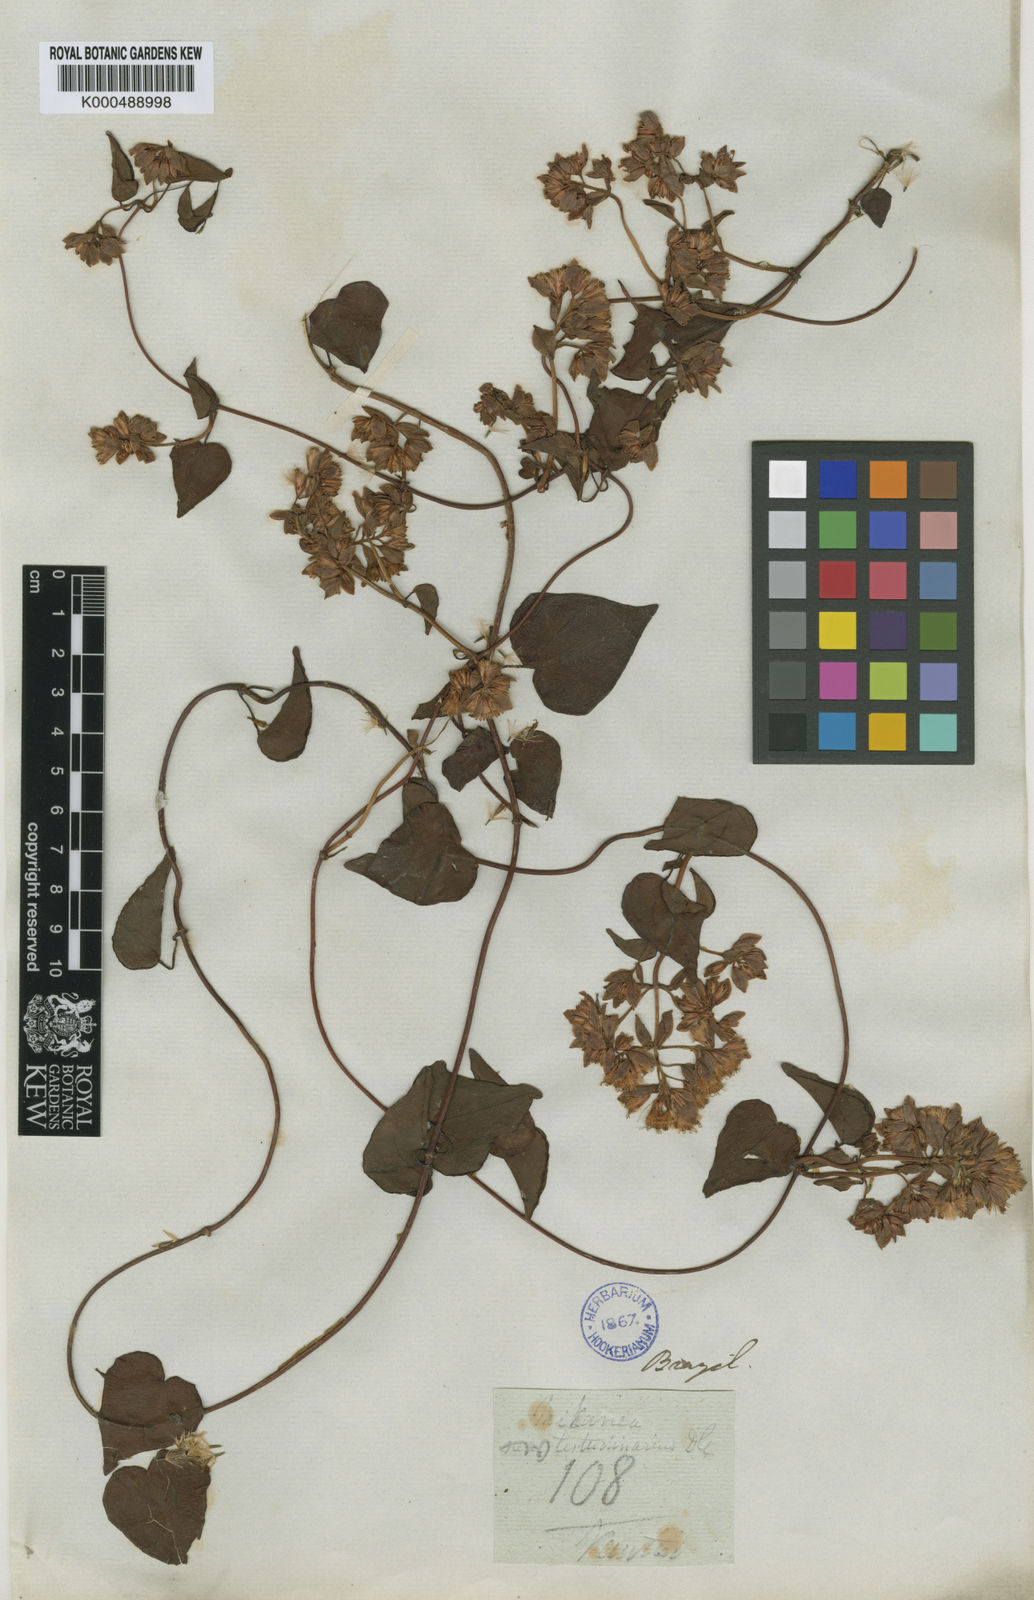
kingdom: Plantae
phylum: Tracheophyta
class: Magnoliopsida
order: Asterales
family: Asteraceae
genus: Mikania
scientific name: Mikania testudinaria
